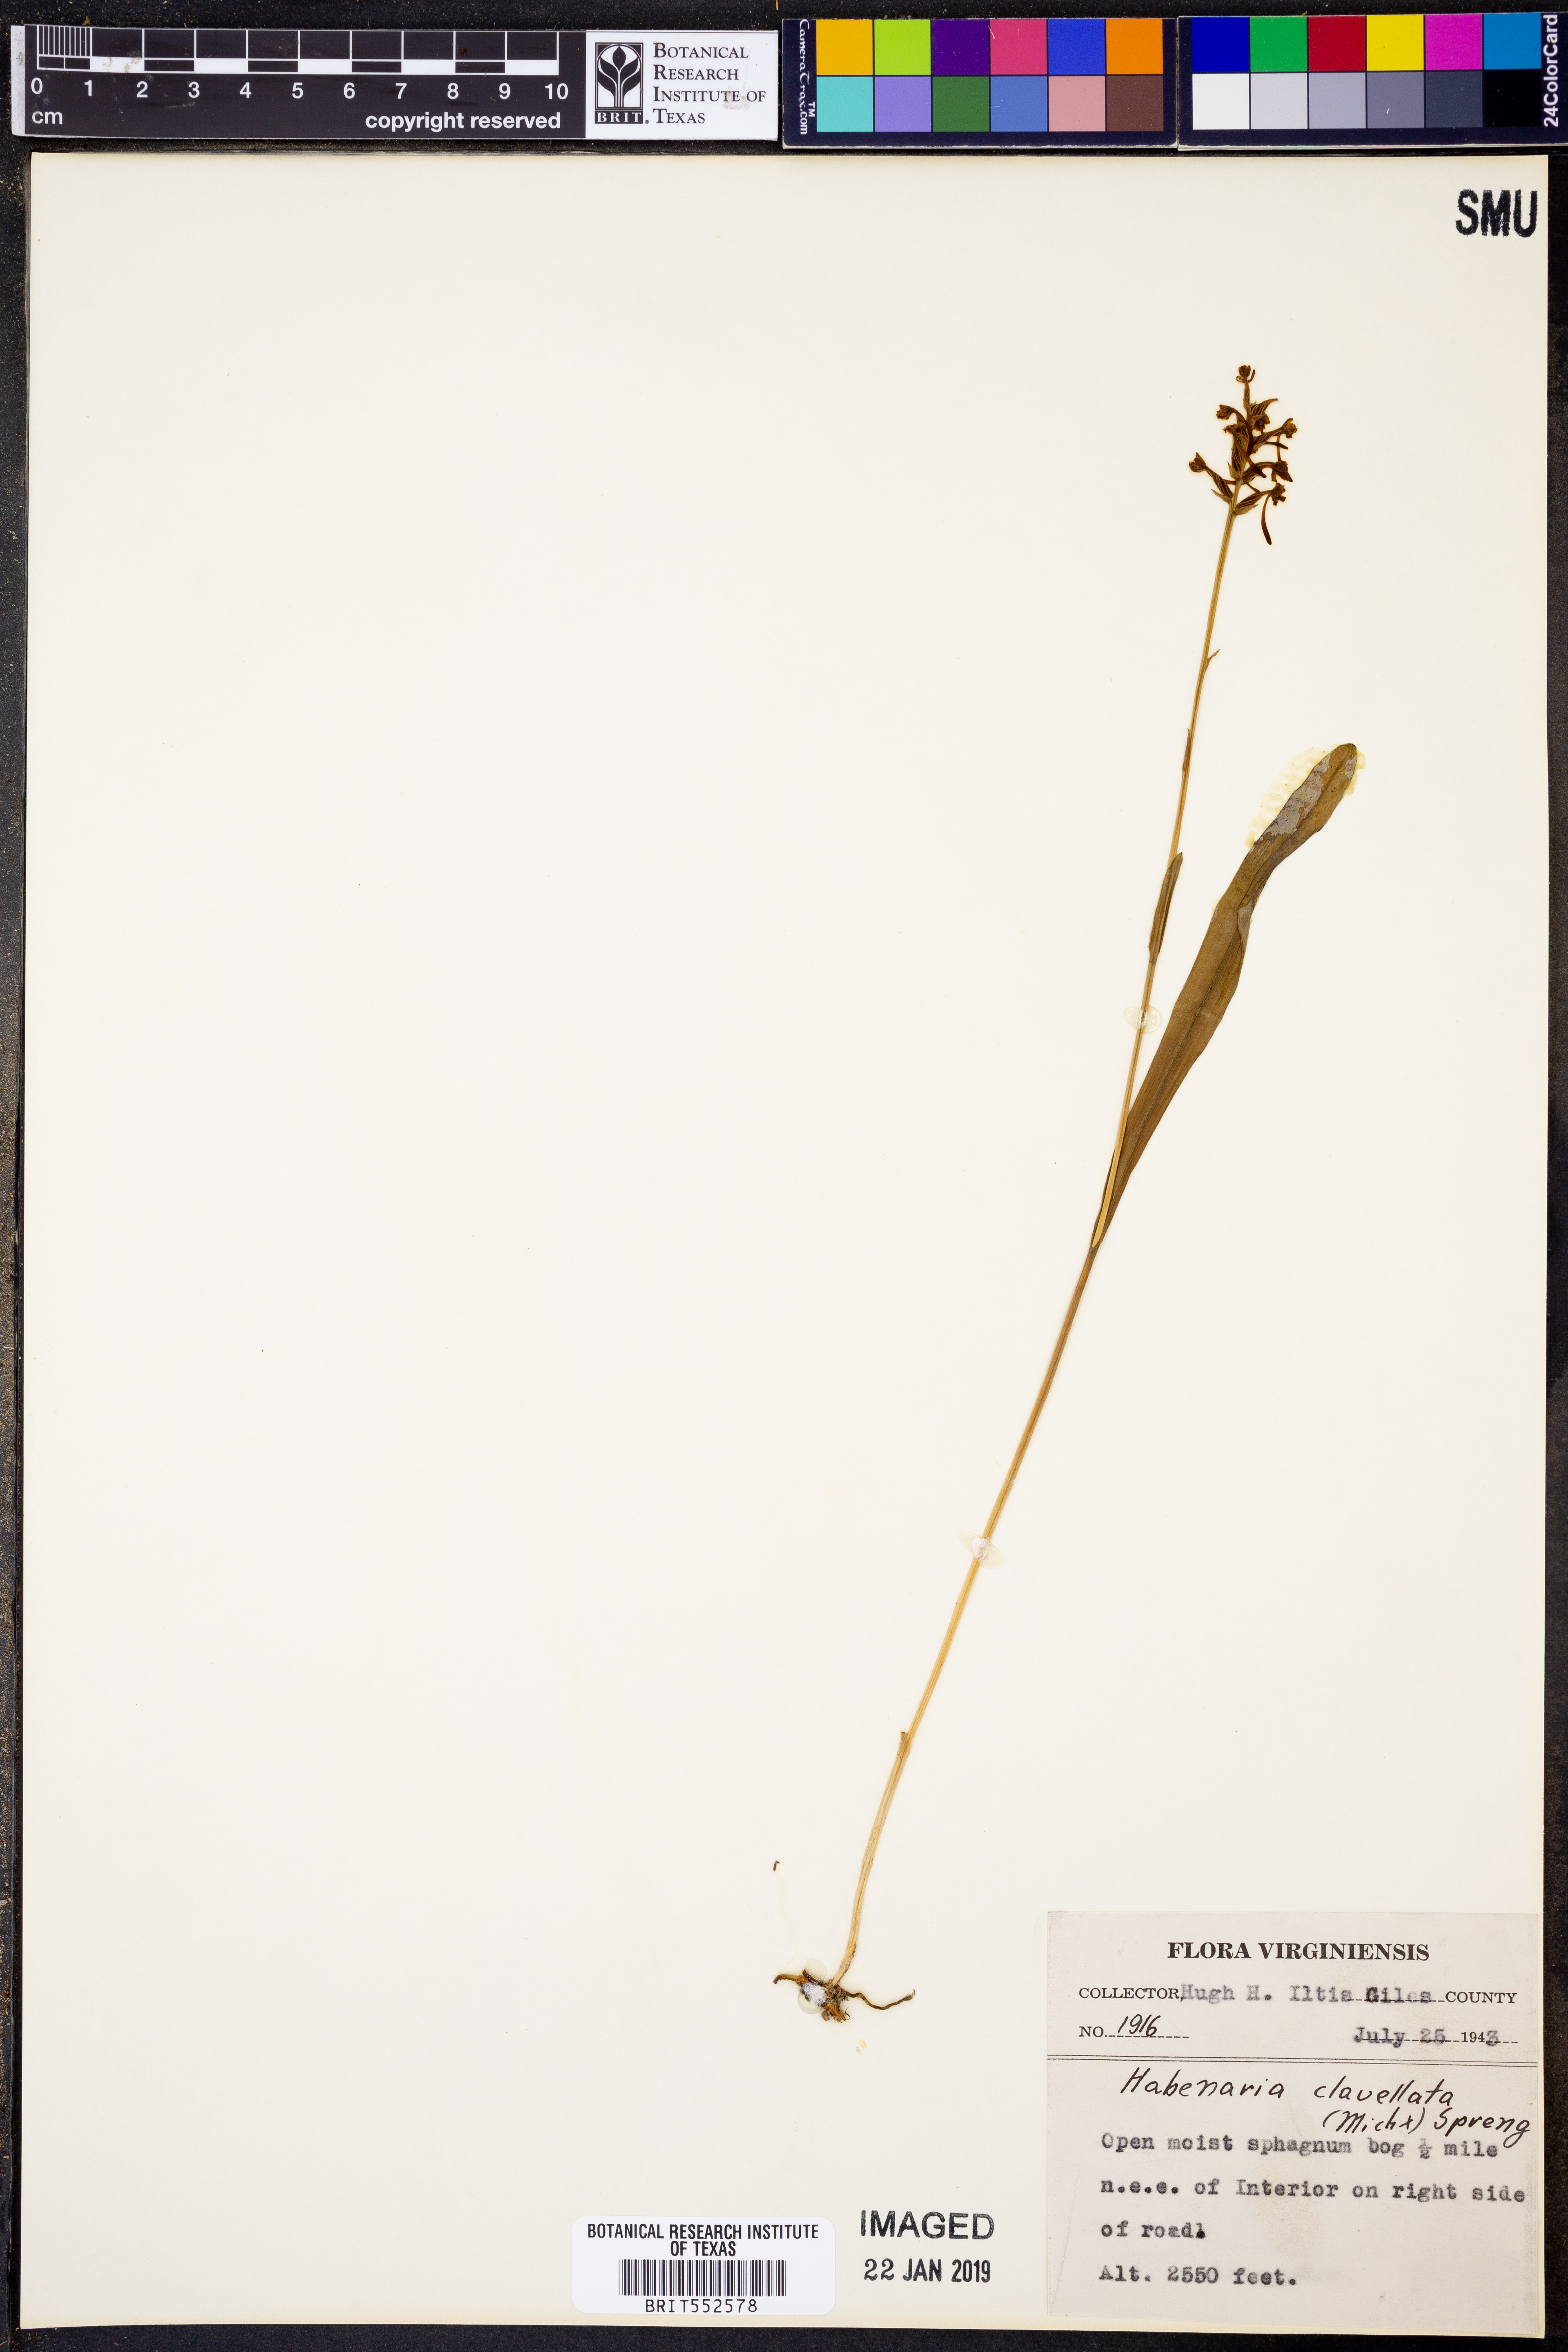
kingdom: Plantae
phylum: Tracheophyta
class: Liliopsida
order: Asparagales
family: Orchidaceae
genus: Platanthera
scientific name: Platanthera clavellata
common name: Club-spur orchid
